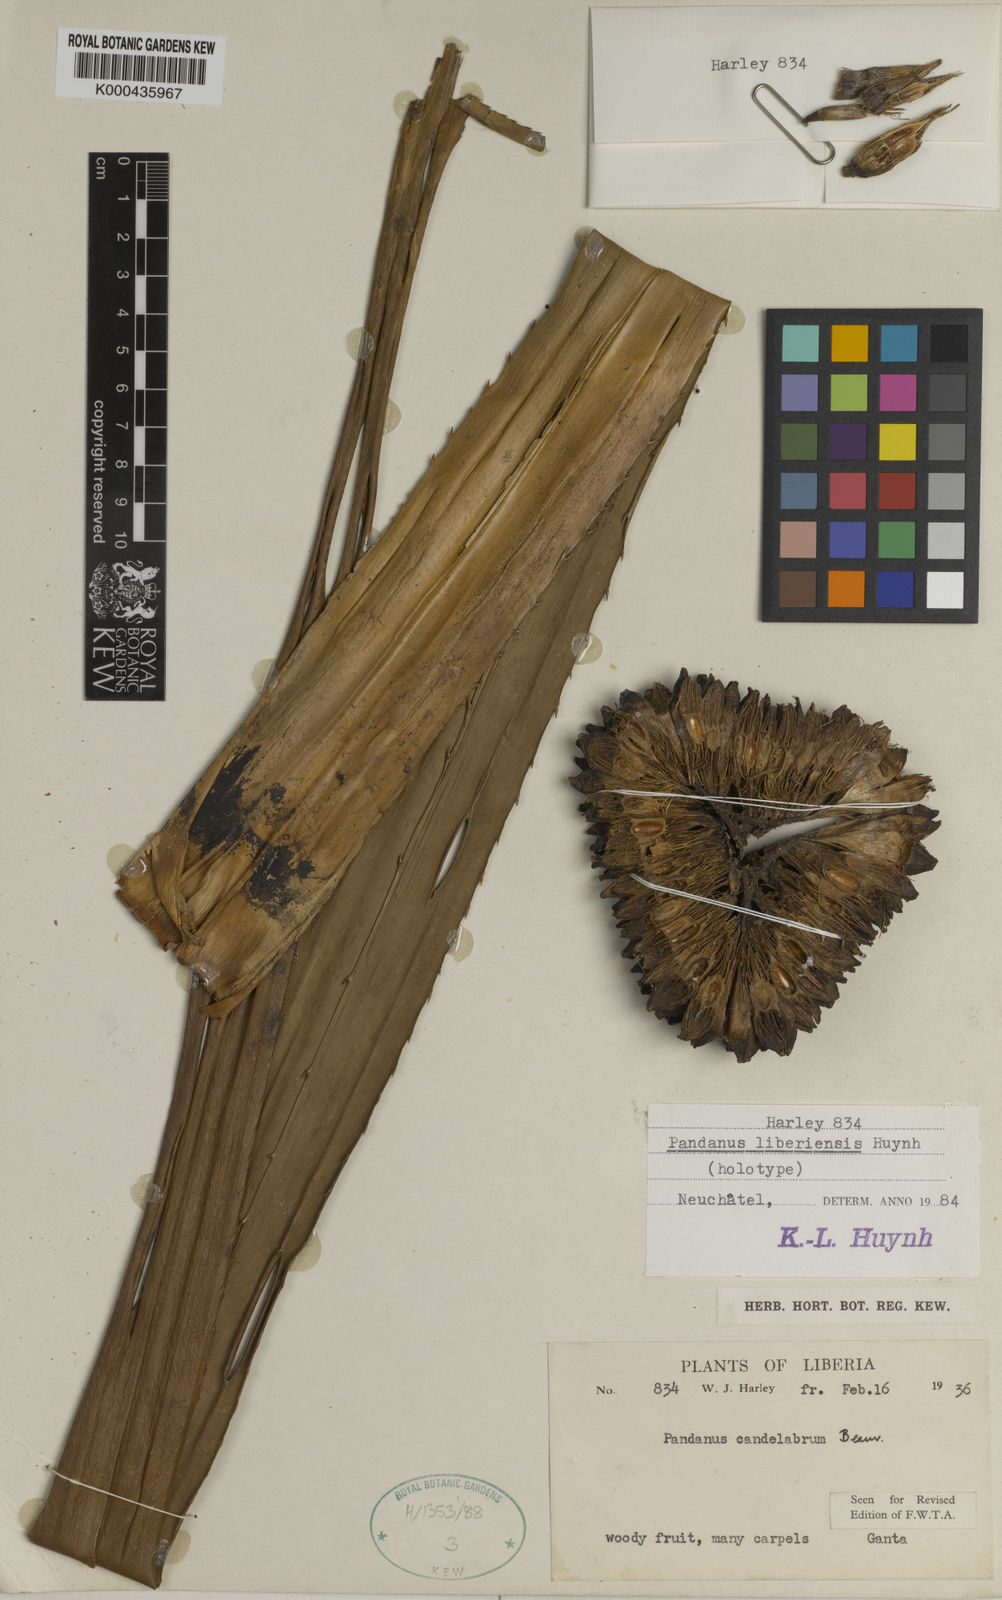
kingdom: Plantae
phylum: Tracheophyta
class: Liliopsida
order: Pandanales
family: Pandanaceae
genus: Pandanus
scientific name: Pandanus candelabrum
